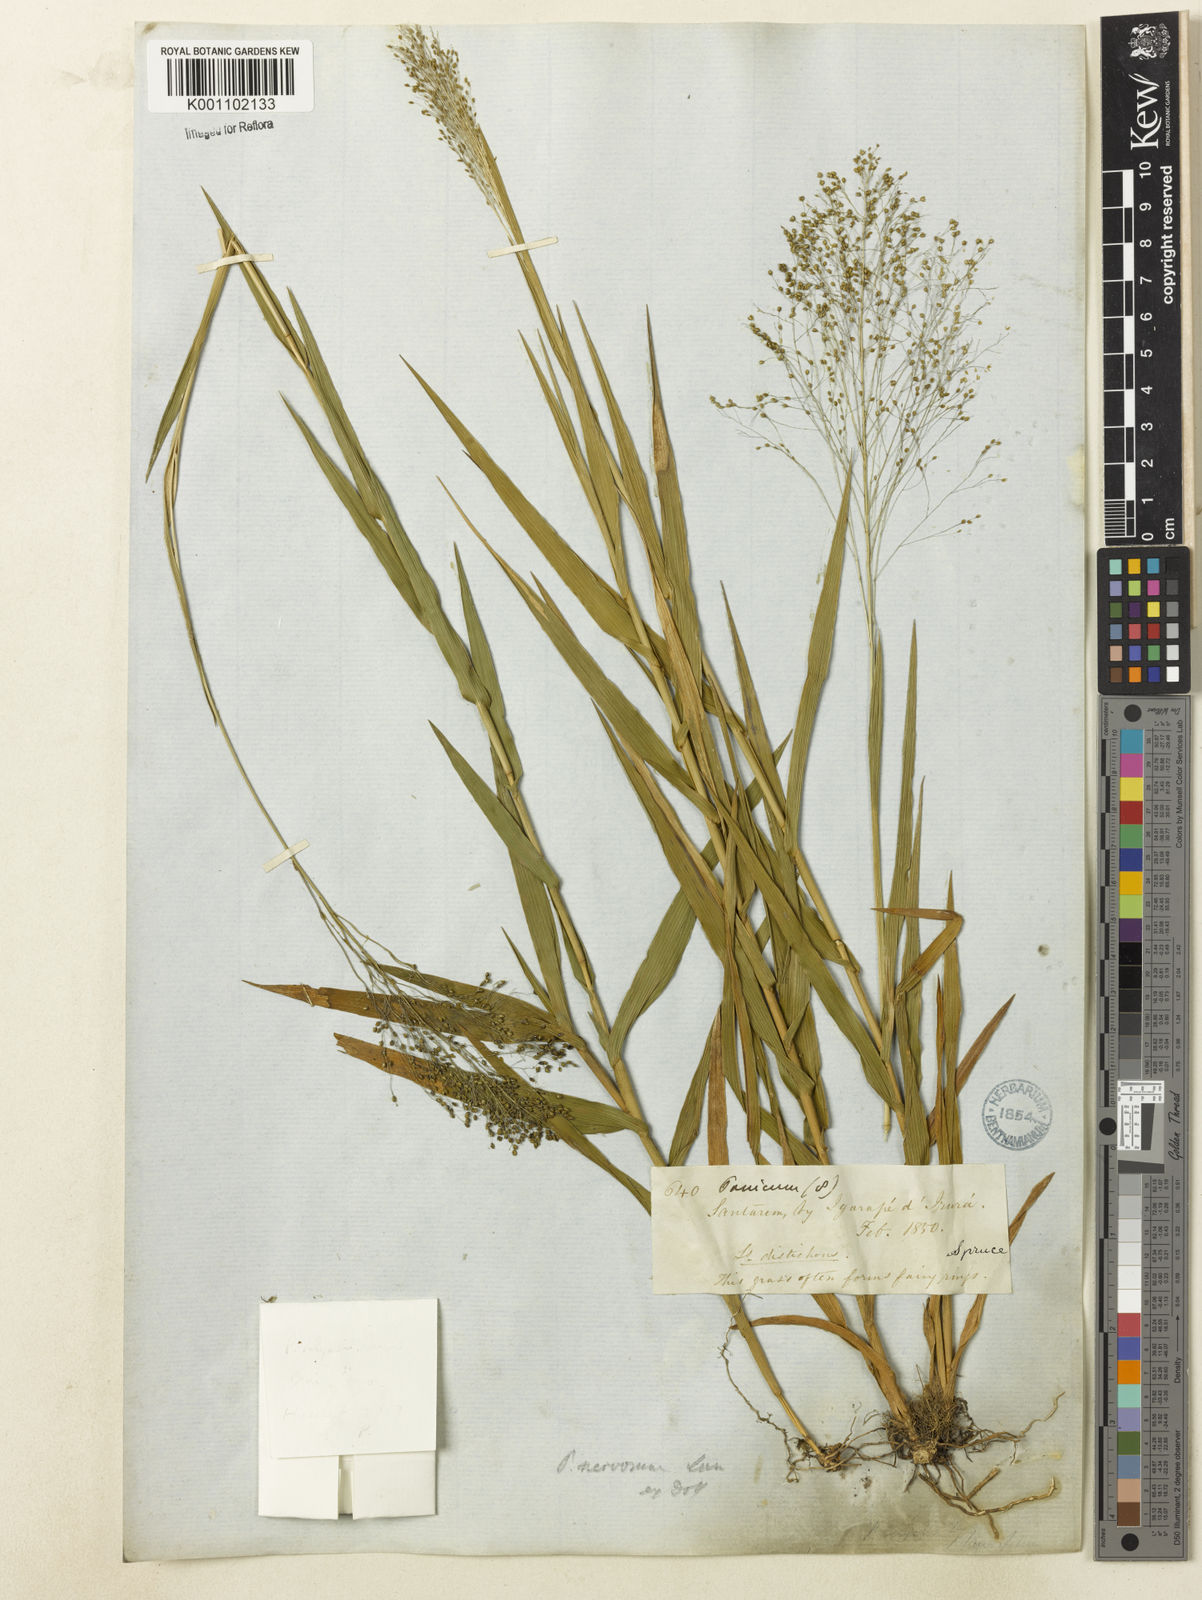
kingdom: Plantae
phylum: Tracheophyta
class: Liliopsida
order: Poales
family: Poaceae
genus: Trichanthecium
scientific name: Trichanthecium nervosum
